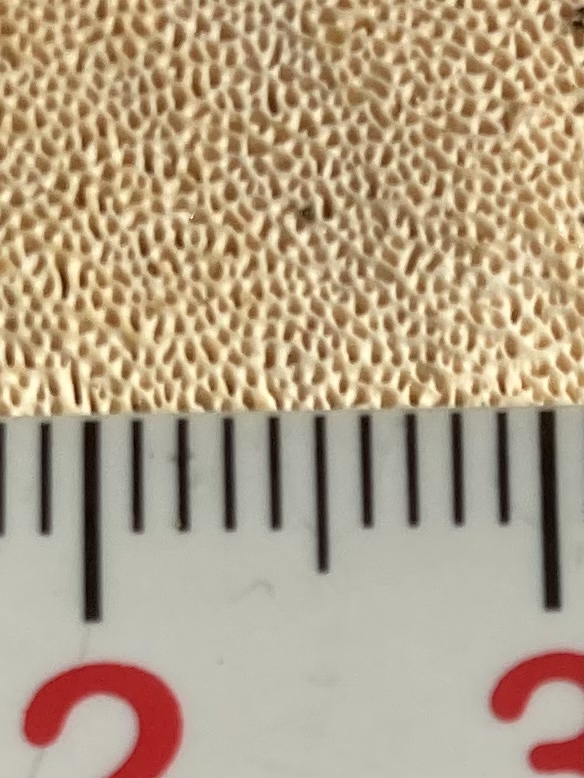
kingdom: Fungi
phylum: Basidiomycota
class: Agaricomycetes
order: Russulales
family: Bondarzewiaceae
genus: Heterobasidion
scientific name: Heterobasidion annosum
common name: almindelig rodfordærver
